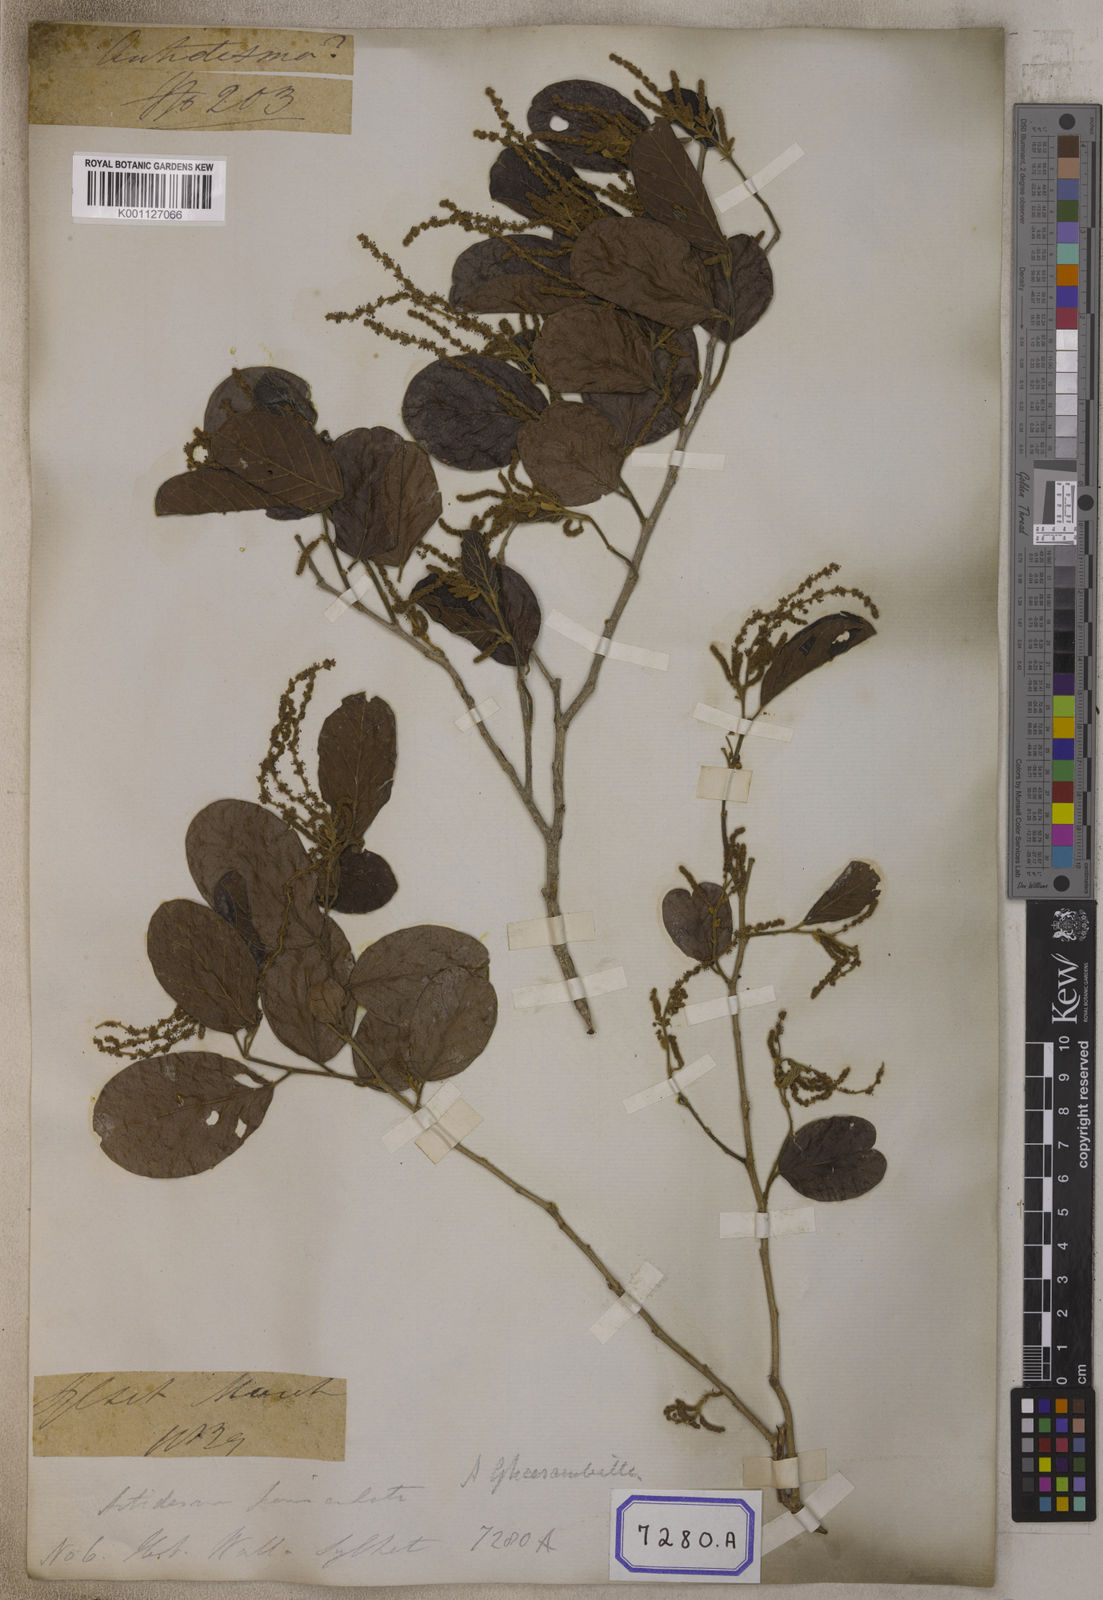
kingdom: Plantae
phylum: Tracheophyta
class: Magnoliopsida
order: Malpighiales
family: Phyllanthaceae
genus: Antidesma
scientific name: Antidesma
